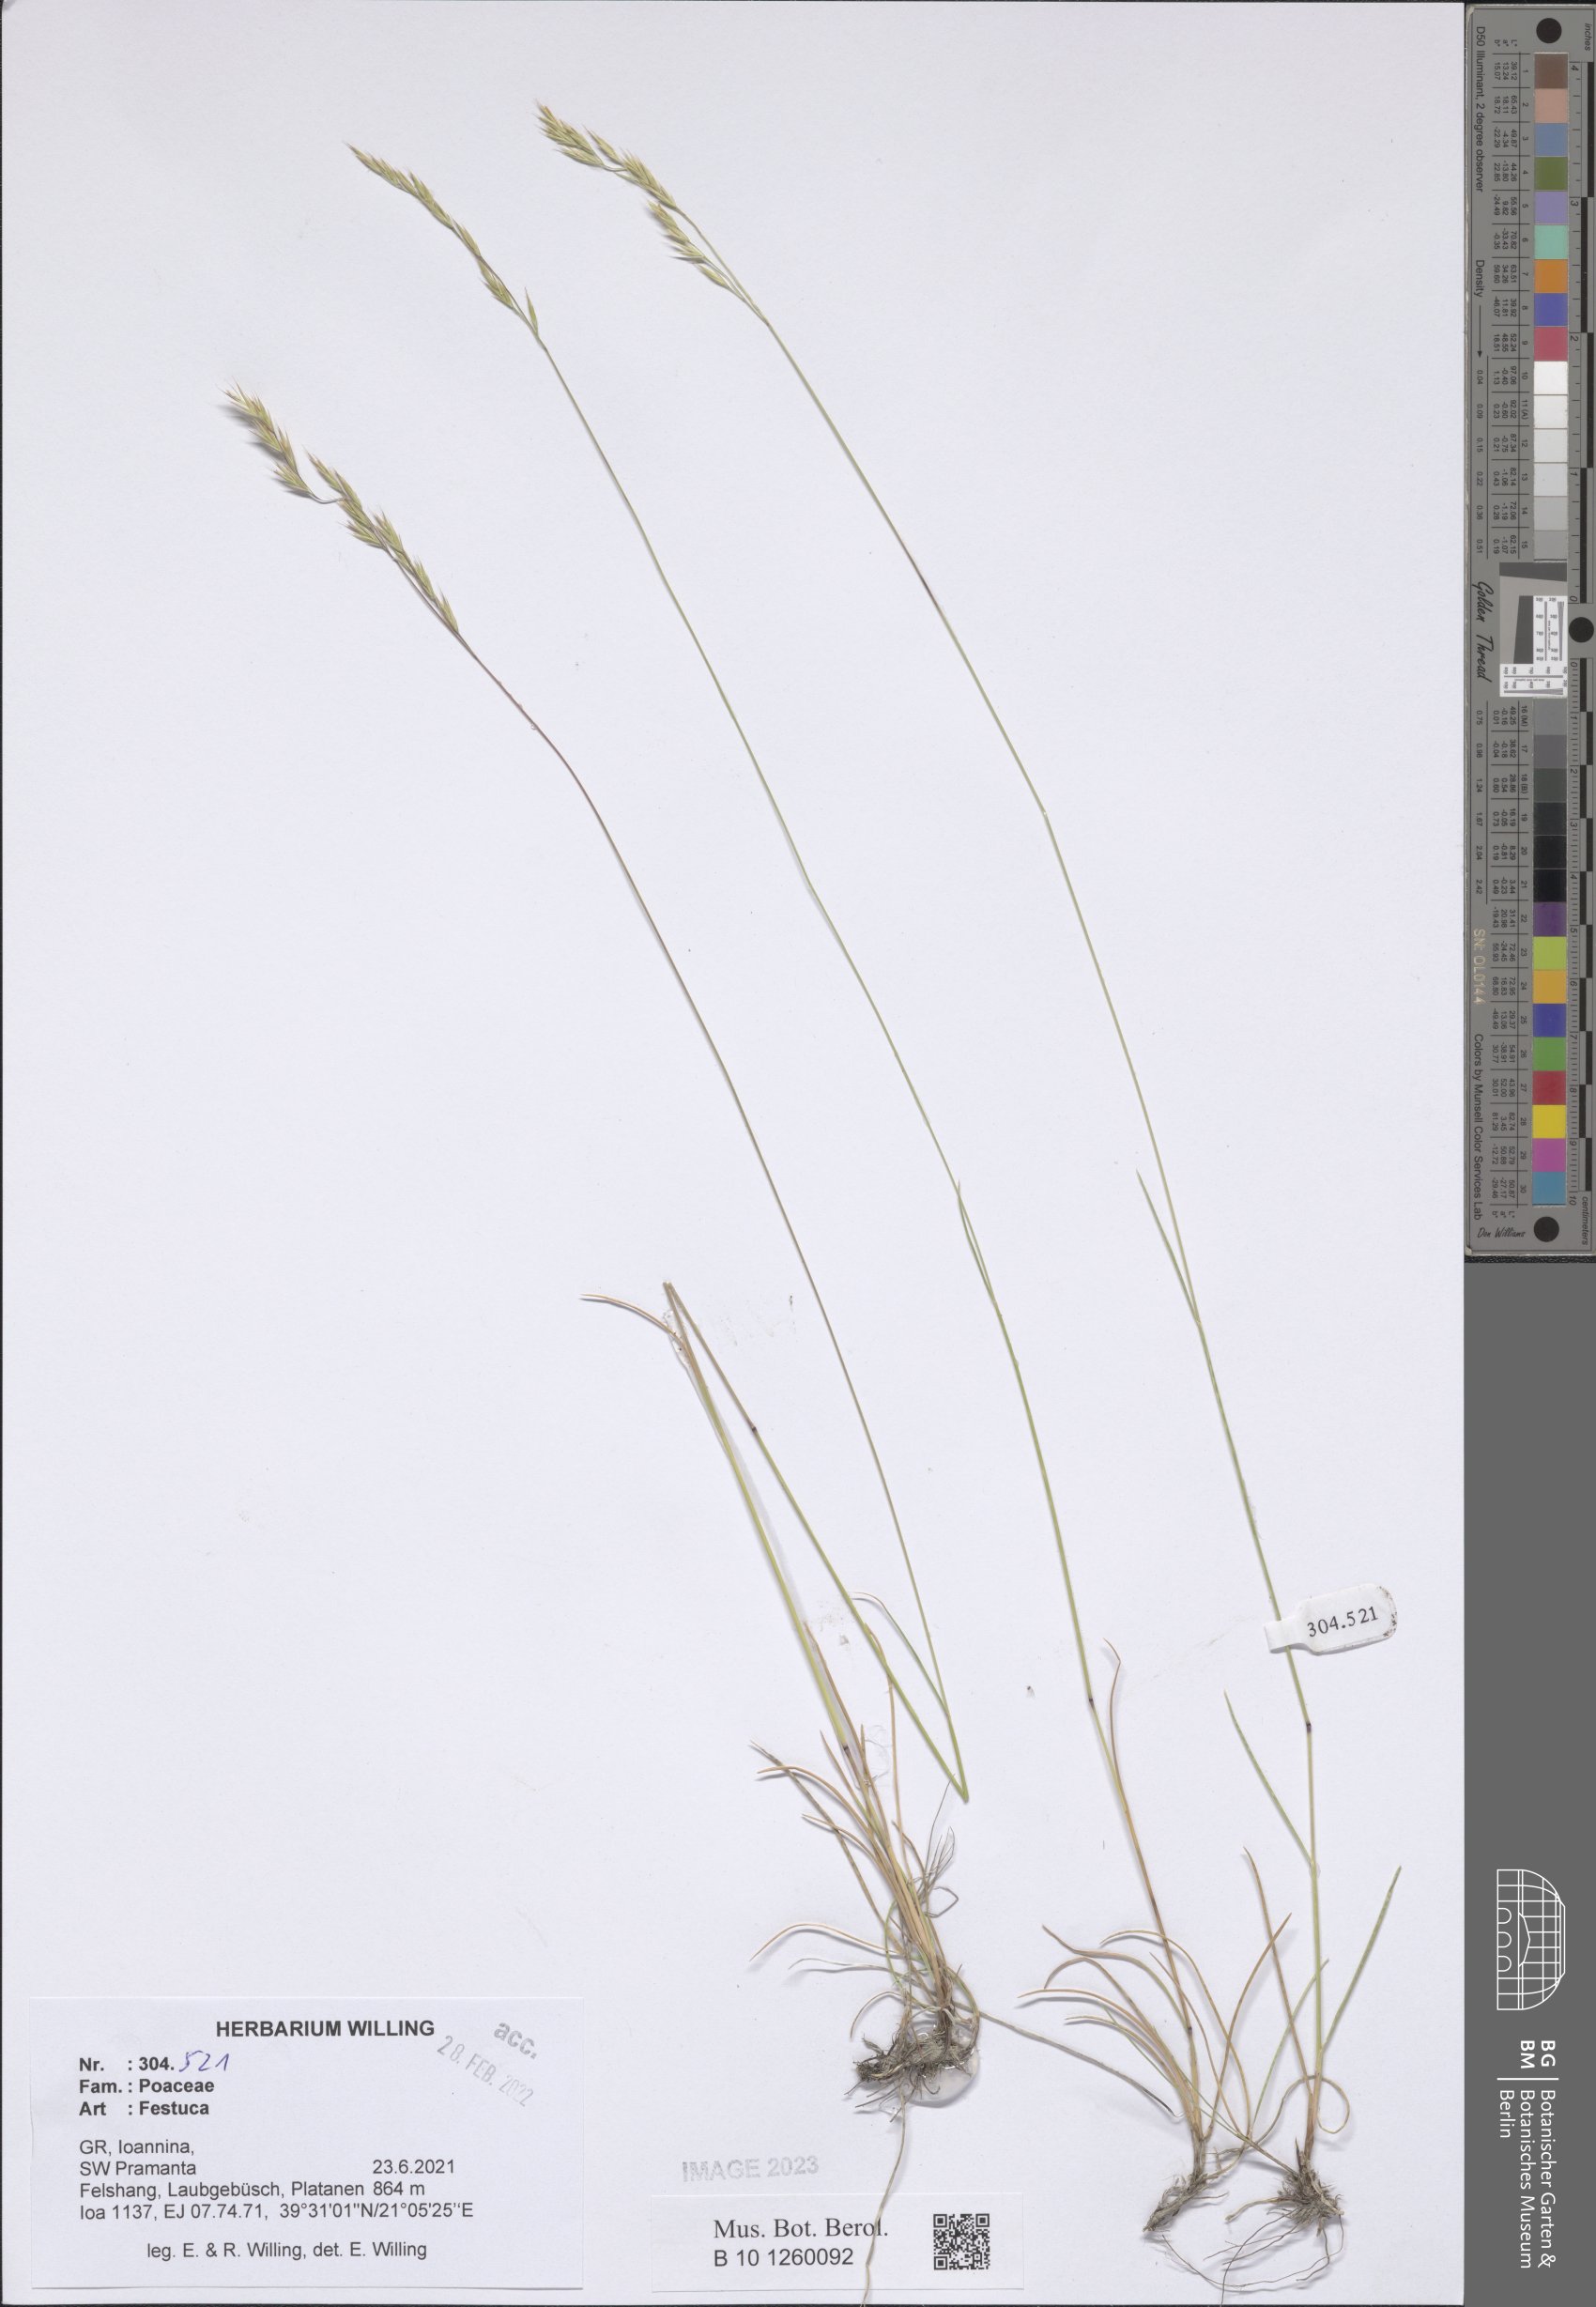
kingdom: Plantae
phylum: Tracheophyta
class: Liliopsida
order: Poales
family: Poaceae
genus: Festuca
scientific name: Festuca
